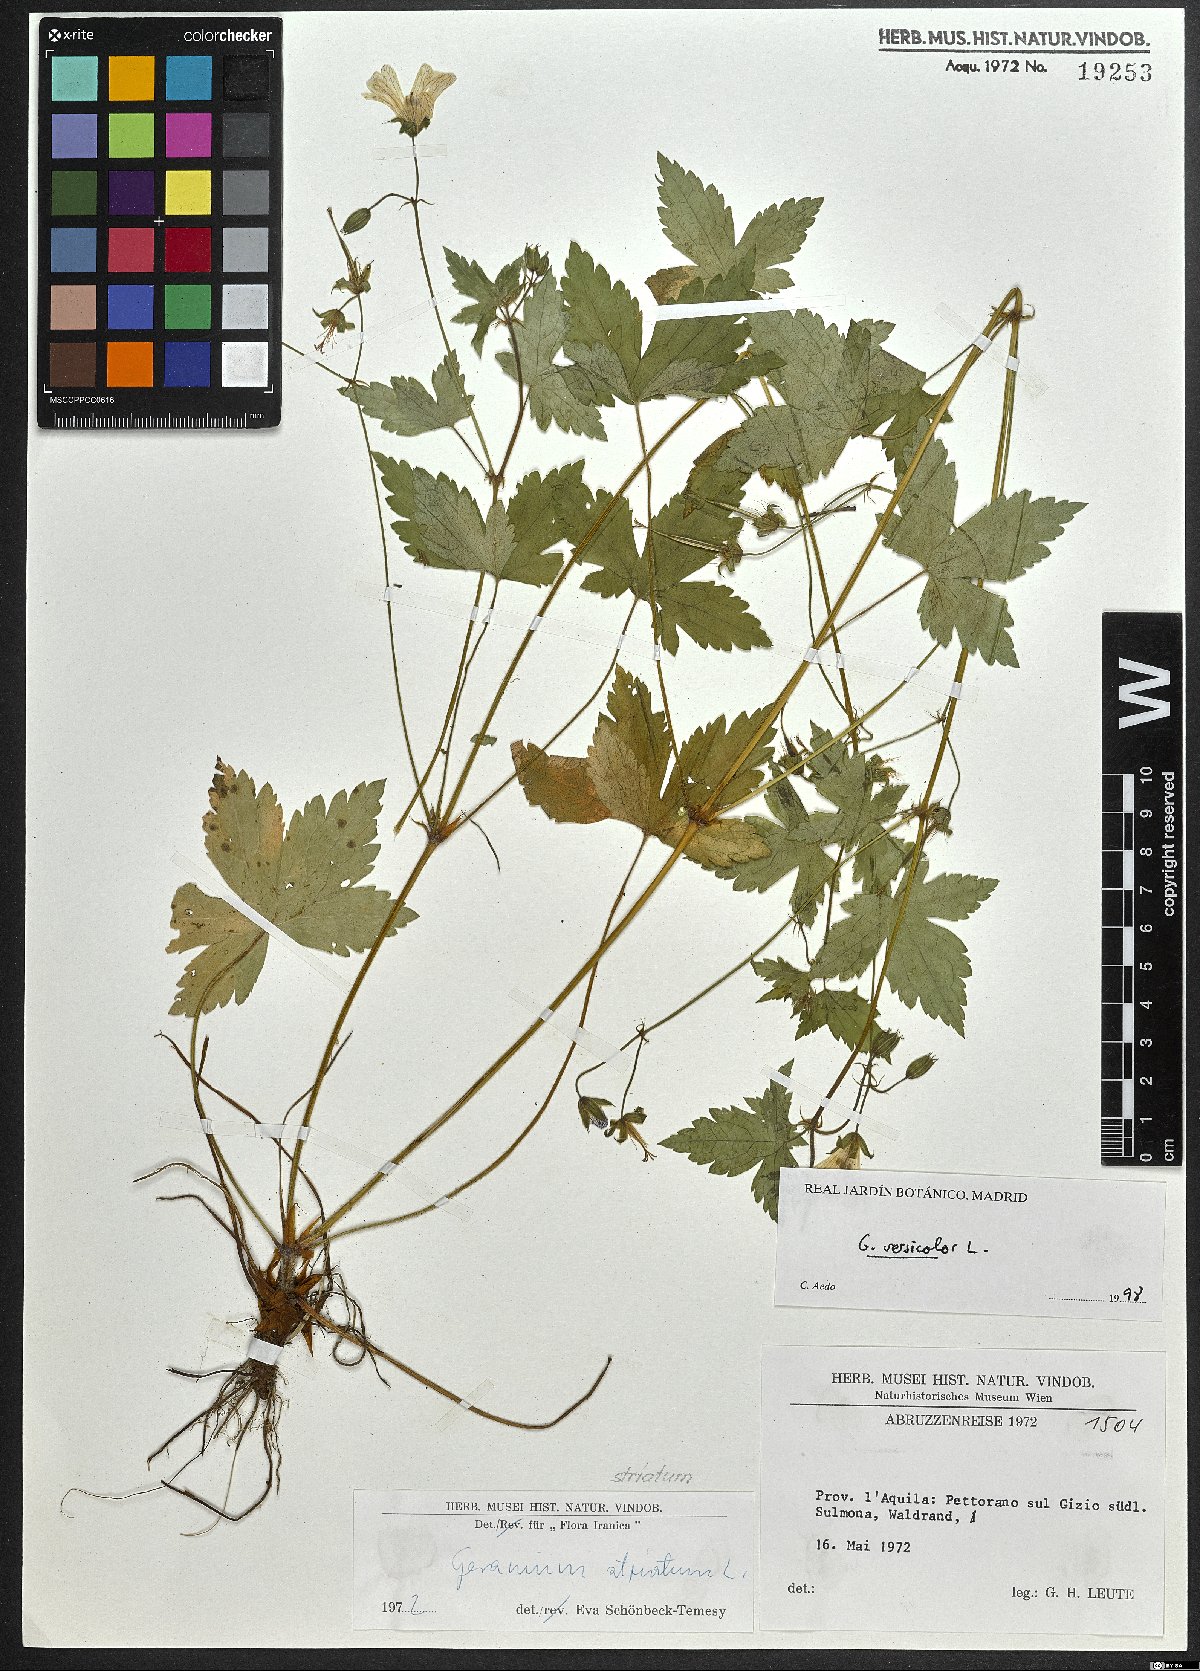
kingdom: Plantae
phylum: Tracheophyta
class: Magnoliopsida
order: Geraniales
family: Geraniaceae
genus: Geranium
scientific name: Geranium versicolor
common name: Pencilled crane's-bill
